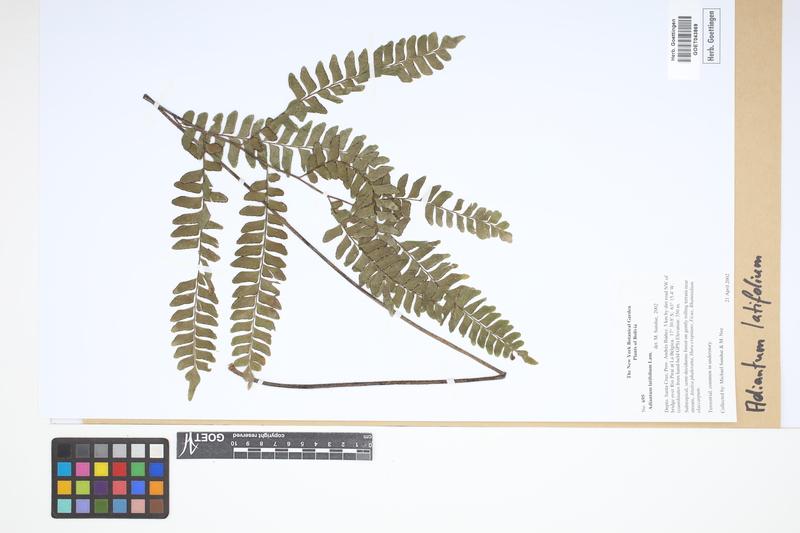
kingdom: Plantae
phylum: Tracheophyta
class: Polypodiopsida
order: Polypodiales
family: Pteridaceae
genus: Adiantum
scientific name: Adiantum latifolium
